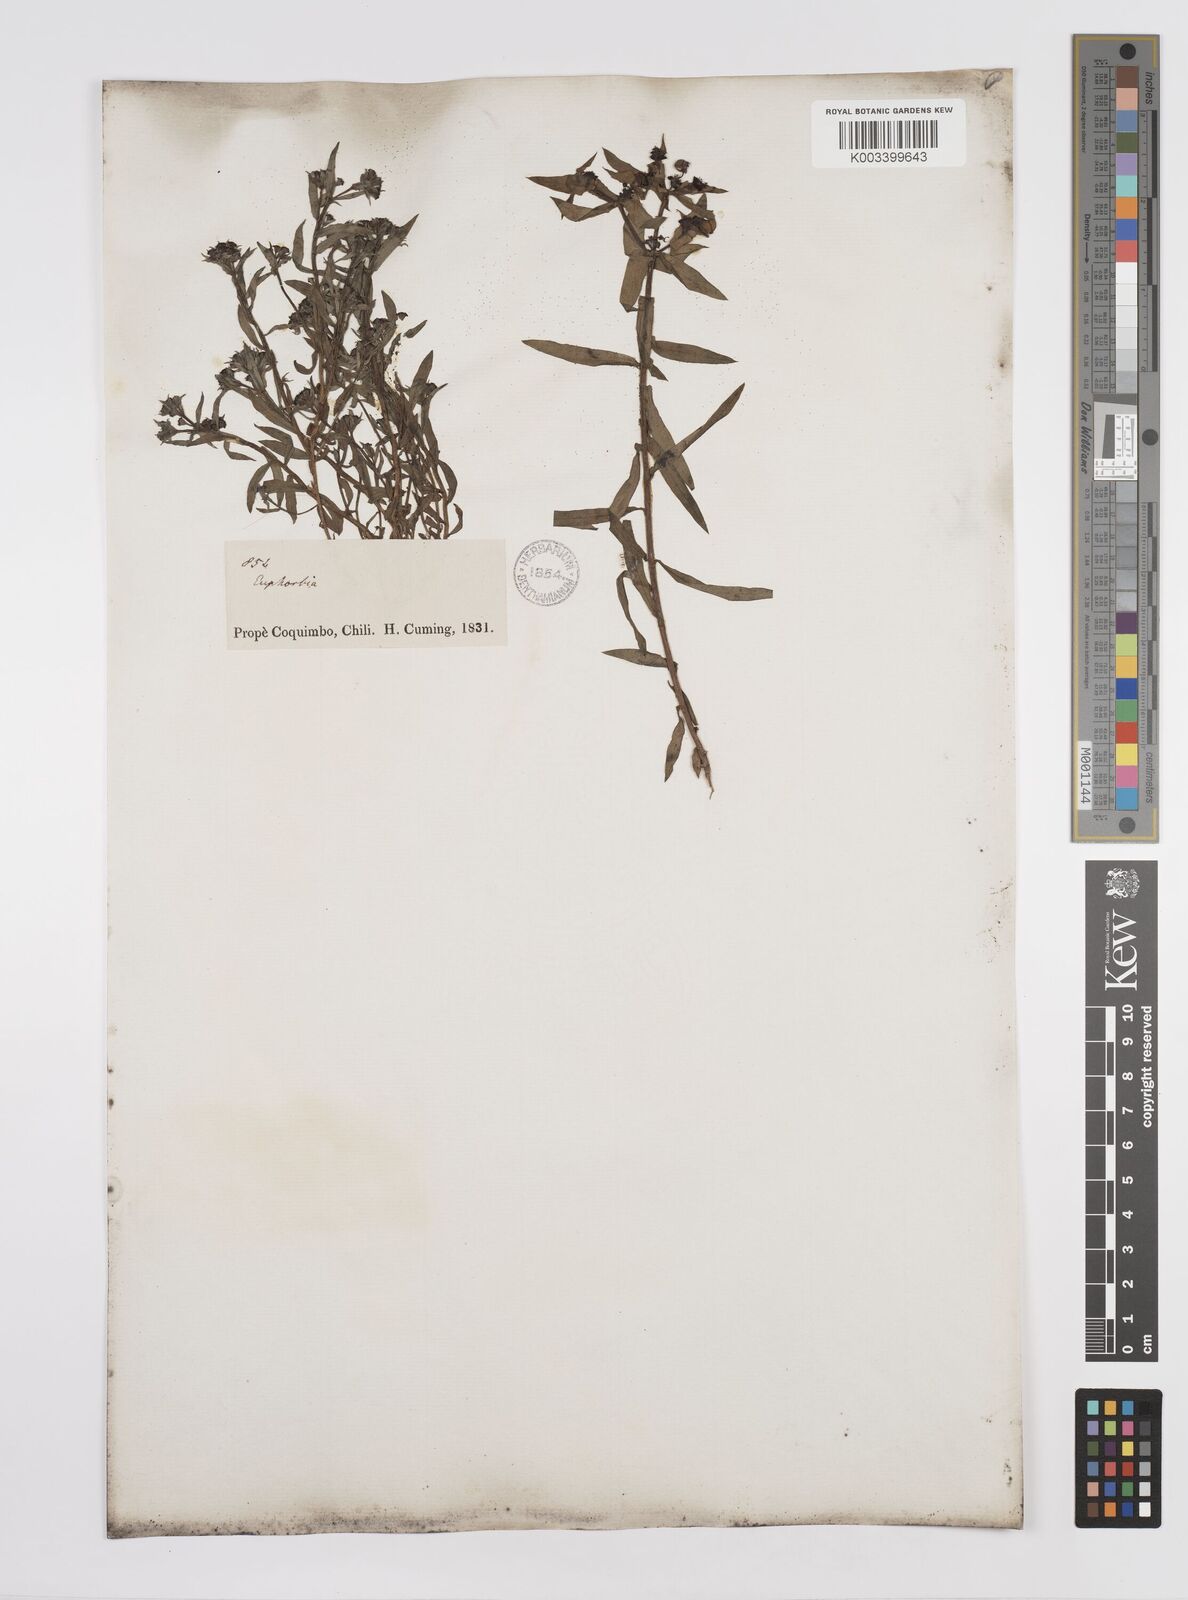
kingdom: Plantae
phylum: Tracheophyta
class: Magnoliopsida
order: Malpighiales
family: Euphorbiaceae
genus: Euphorbia
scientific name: Euphorbia portulacoides
